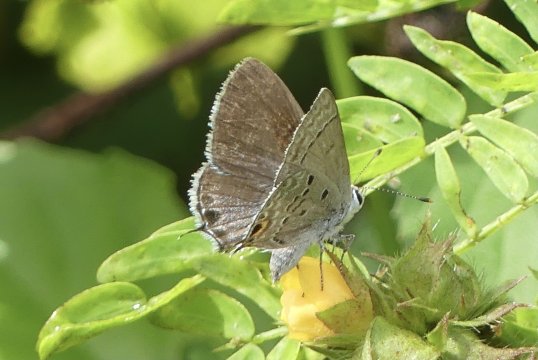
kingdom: Animalia
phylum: Arthropoda
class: Insecta
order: Lepidoptera
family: Lycaenidae
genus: Callicista
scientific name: Callicista columella
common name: Mallow Scrub-Hairstreak
